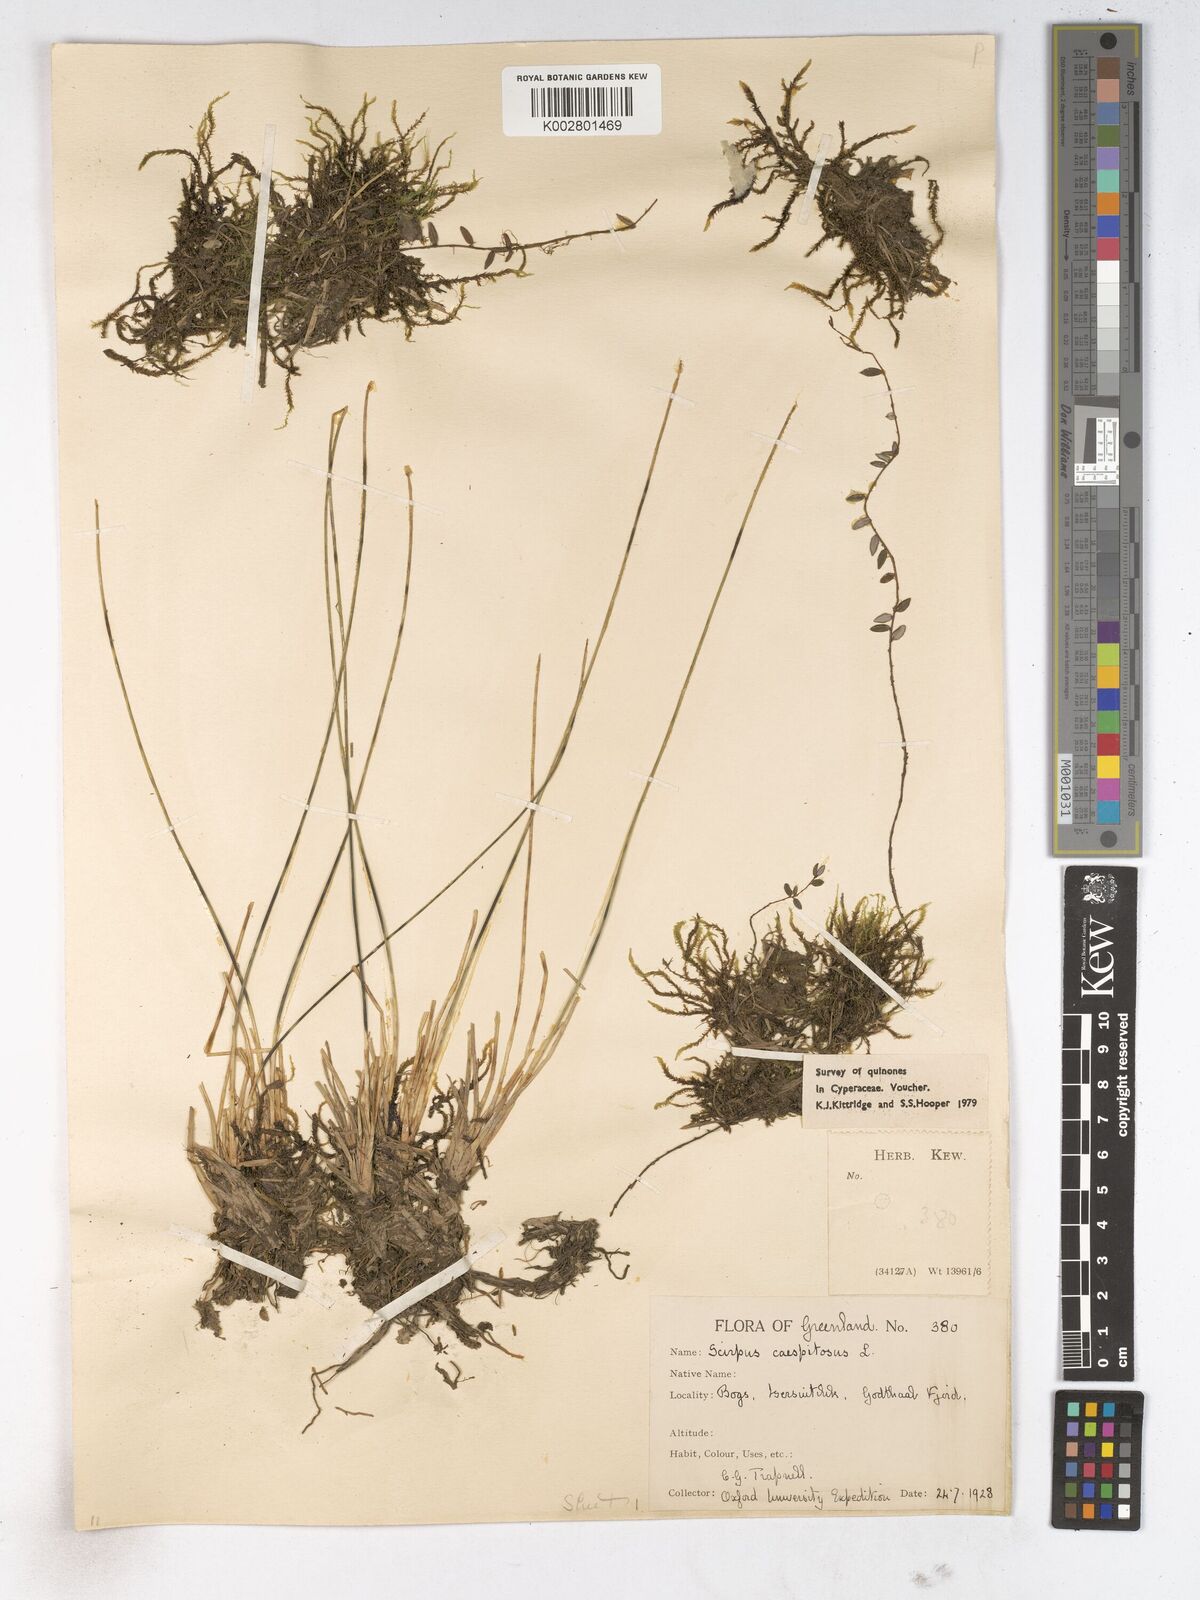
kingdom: Plantae
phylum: Tracheophyta
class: Liliopsida
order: Poales
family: Cyperaceae
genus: Trichophorum
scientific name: Trichophorum cespitosum
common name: Cespitose bulrush
